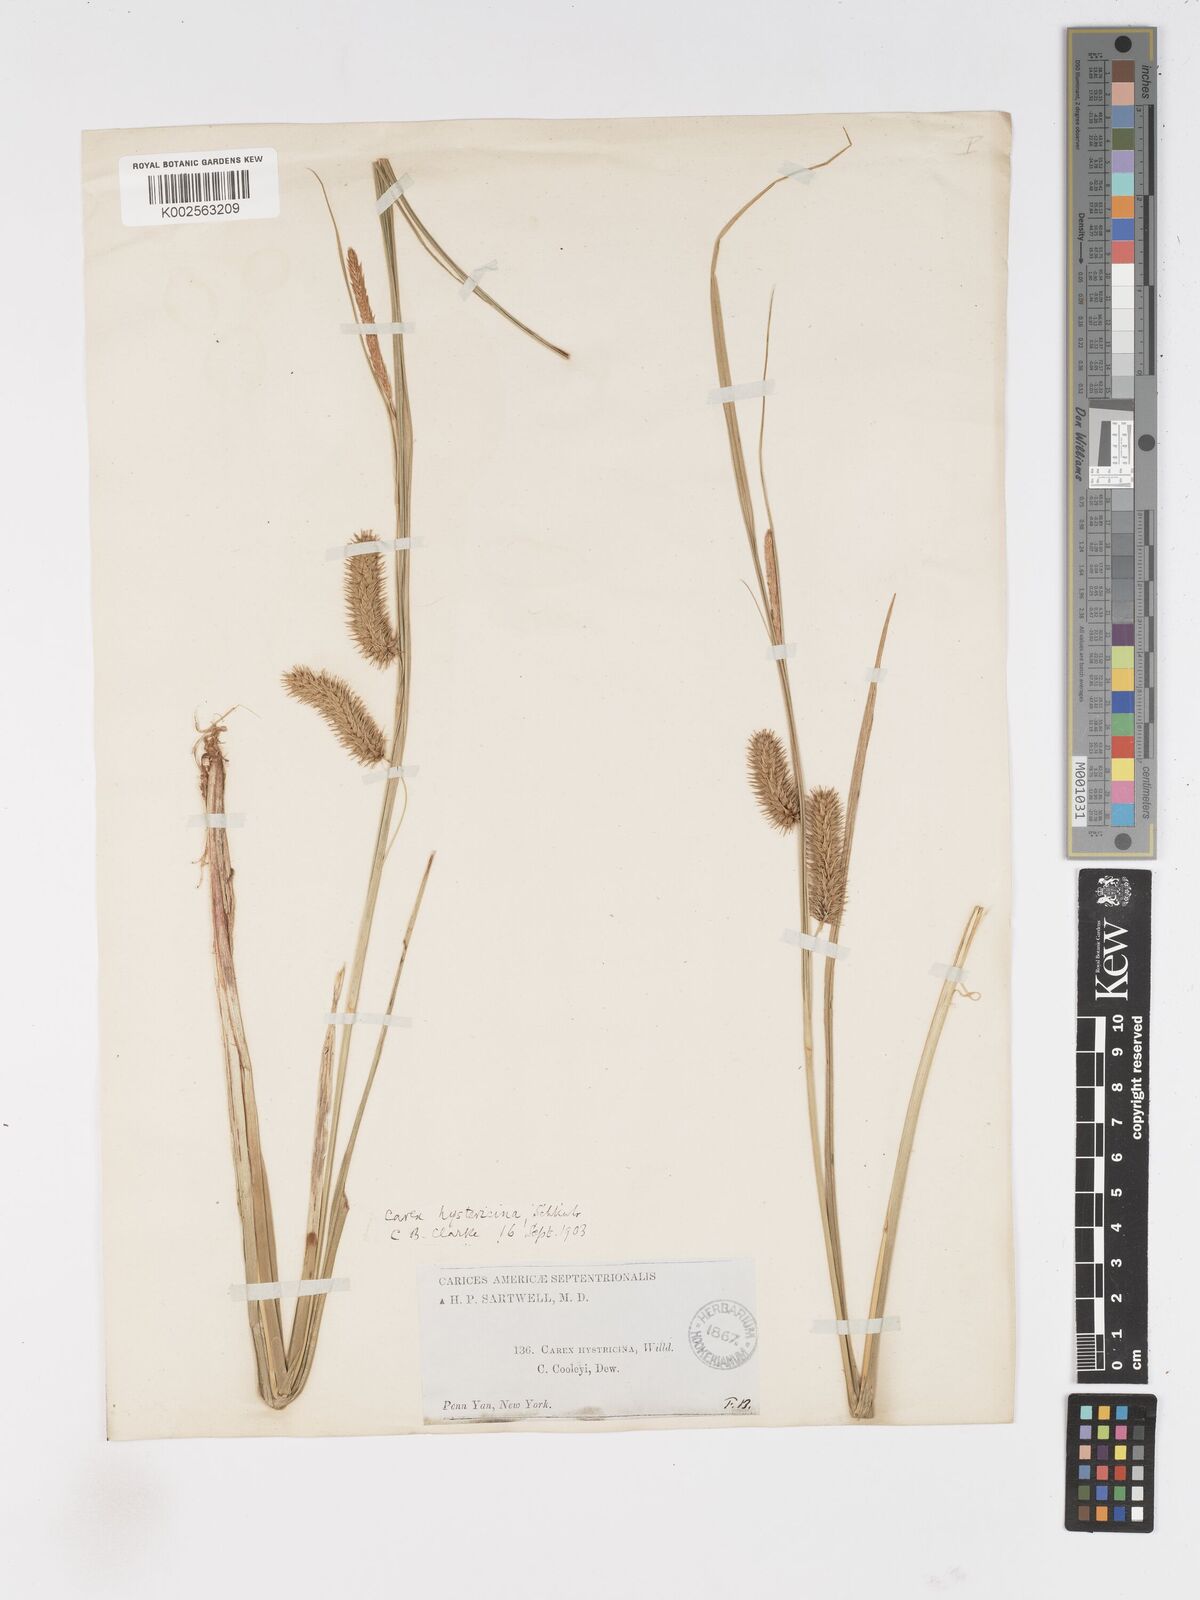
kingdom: Plantae
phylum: Tracheophyta
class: Liliopsida
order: Poales
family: Cyperaceae
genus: Carex
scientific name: Carex hystericina
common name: Bottlebrush sedge
